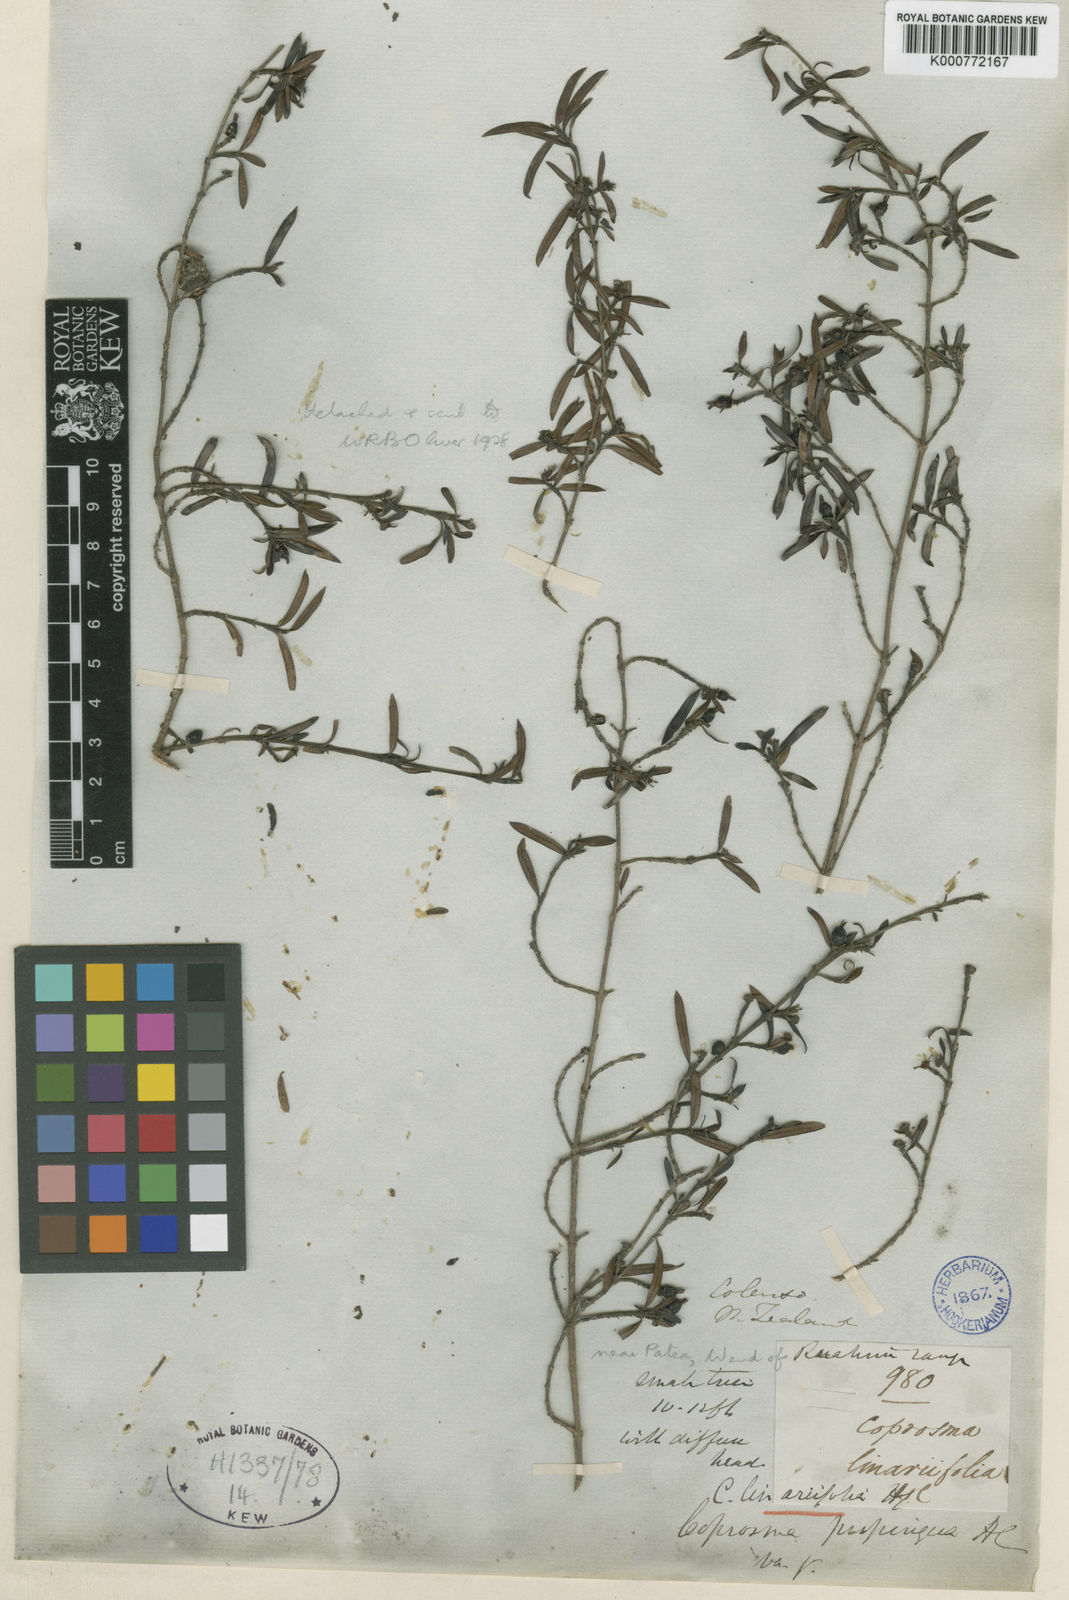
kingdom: Plantae
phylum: Tracheophyta
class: Magnoliopsida
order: Gentianales
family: Rubiaceae
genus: Coprosma
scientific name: Coprosma linariifolia
